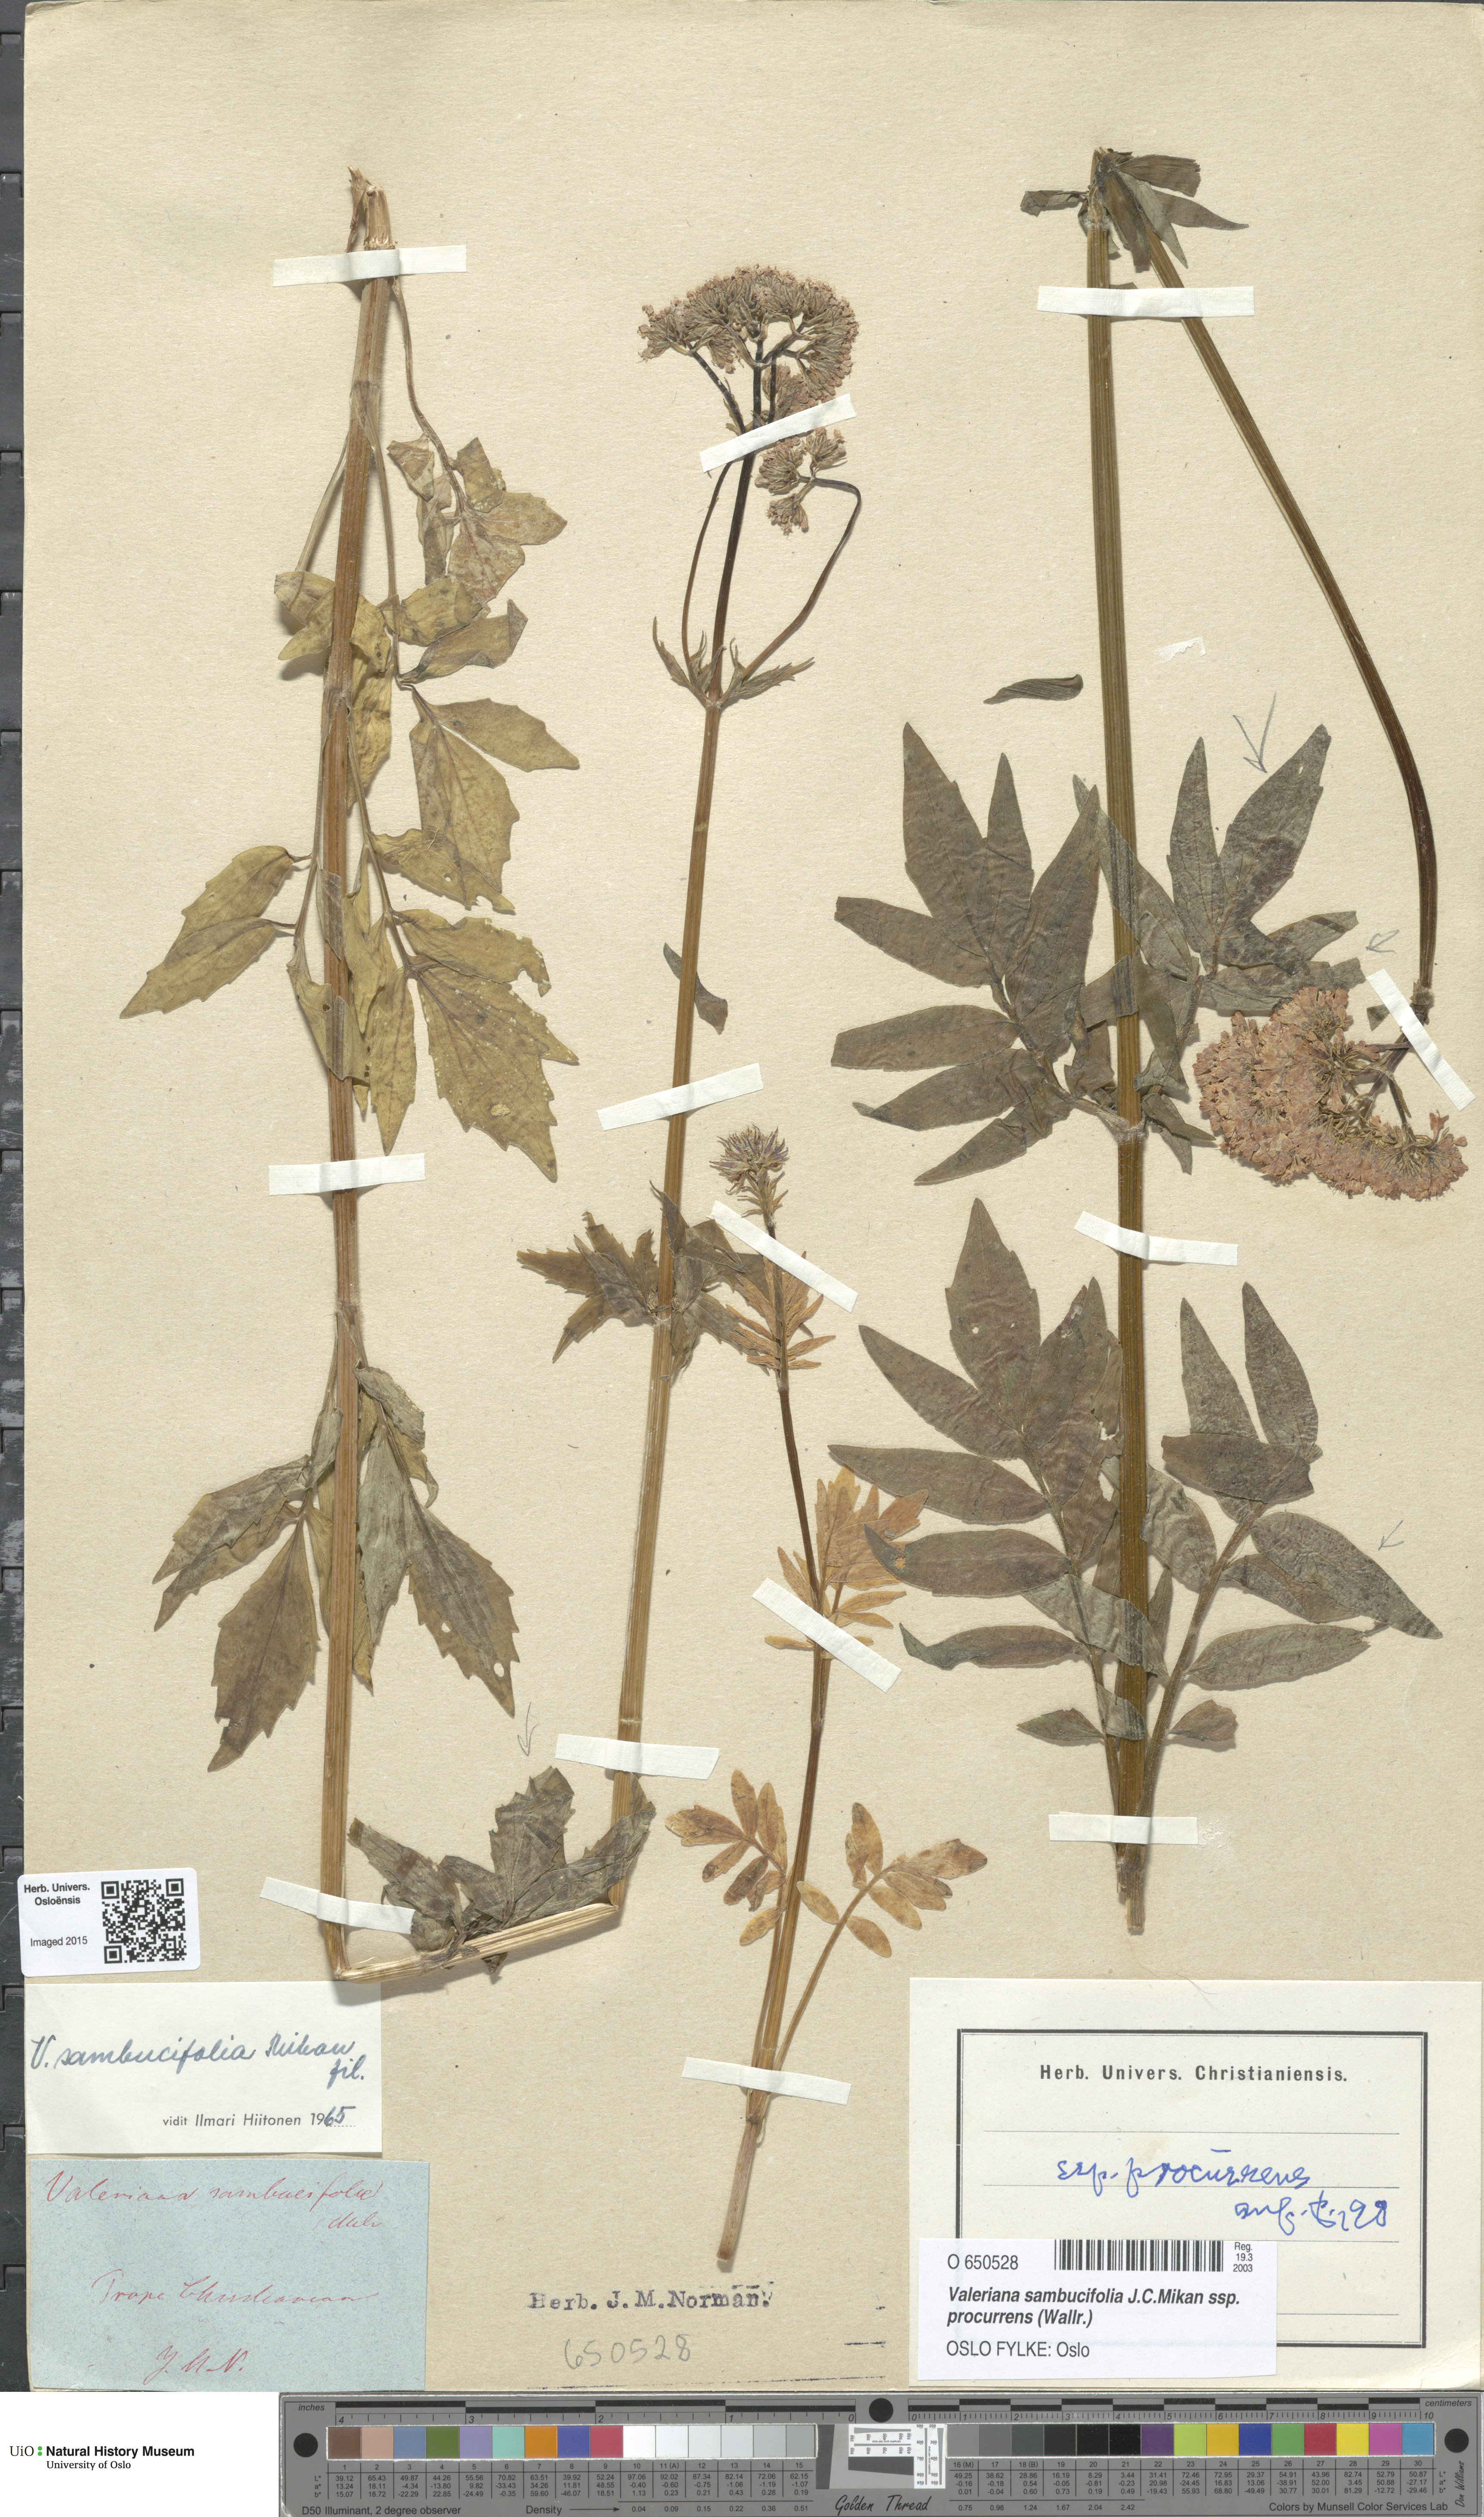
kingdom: Plantae
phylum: Tracheophyta
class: Magnoliopsida
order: Dipsacales
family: Caprifoliaceae
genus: Valeriana
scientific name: Valeriana excelsa
